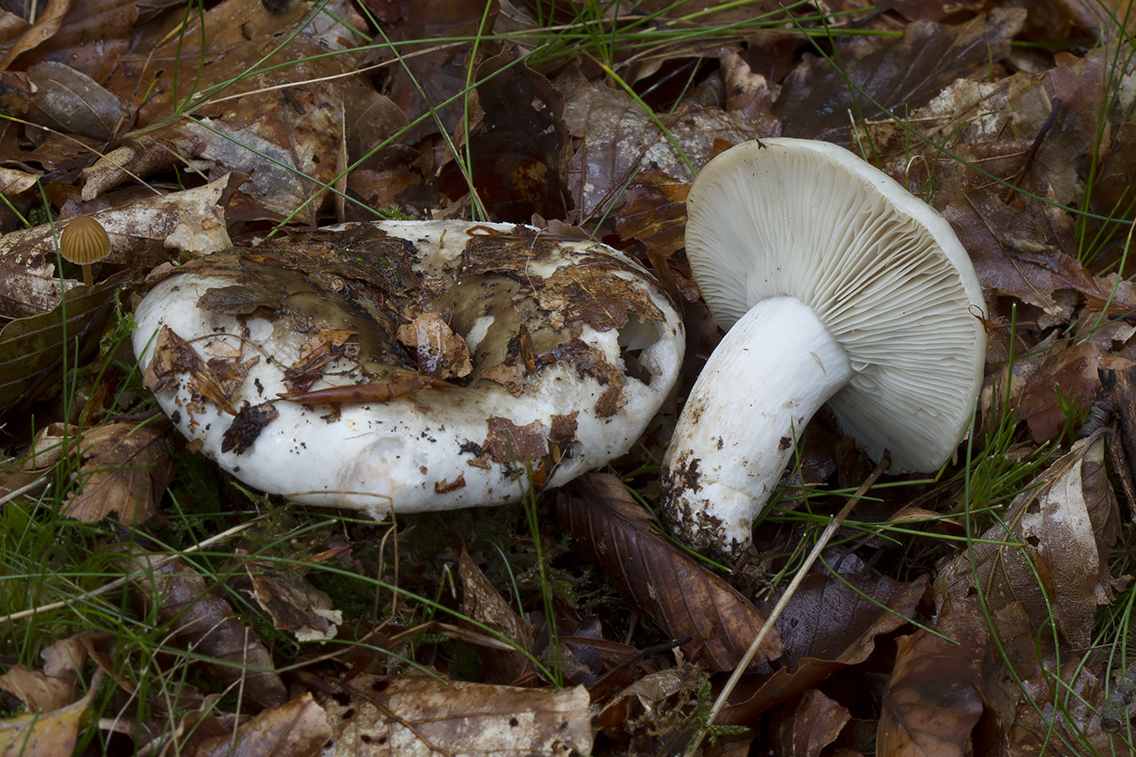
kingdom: Fungi
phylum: Basidiomycota
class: Agaricomycetes
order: Russulales
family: Russulaceae
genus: Russula
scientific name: Russula densifolia
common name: tætbladet skørhat
